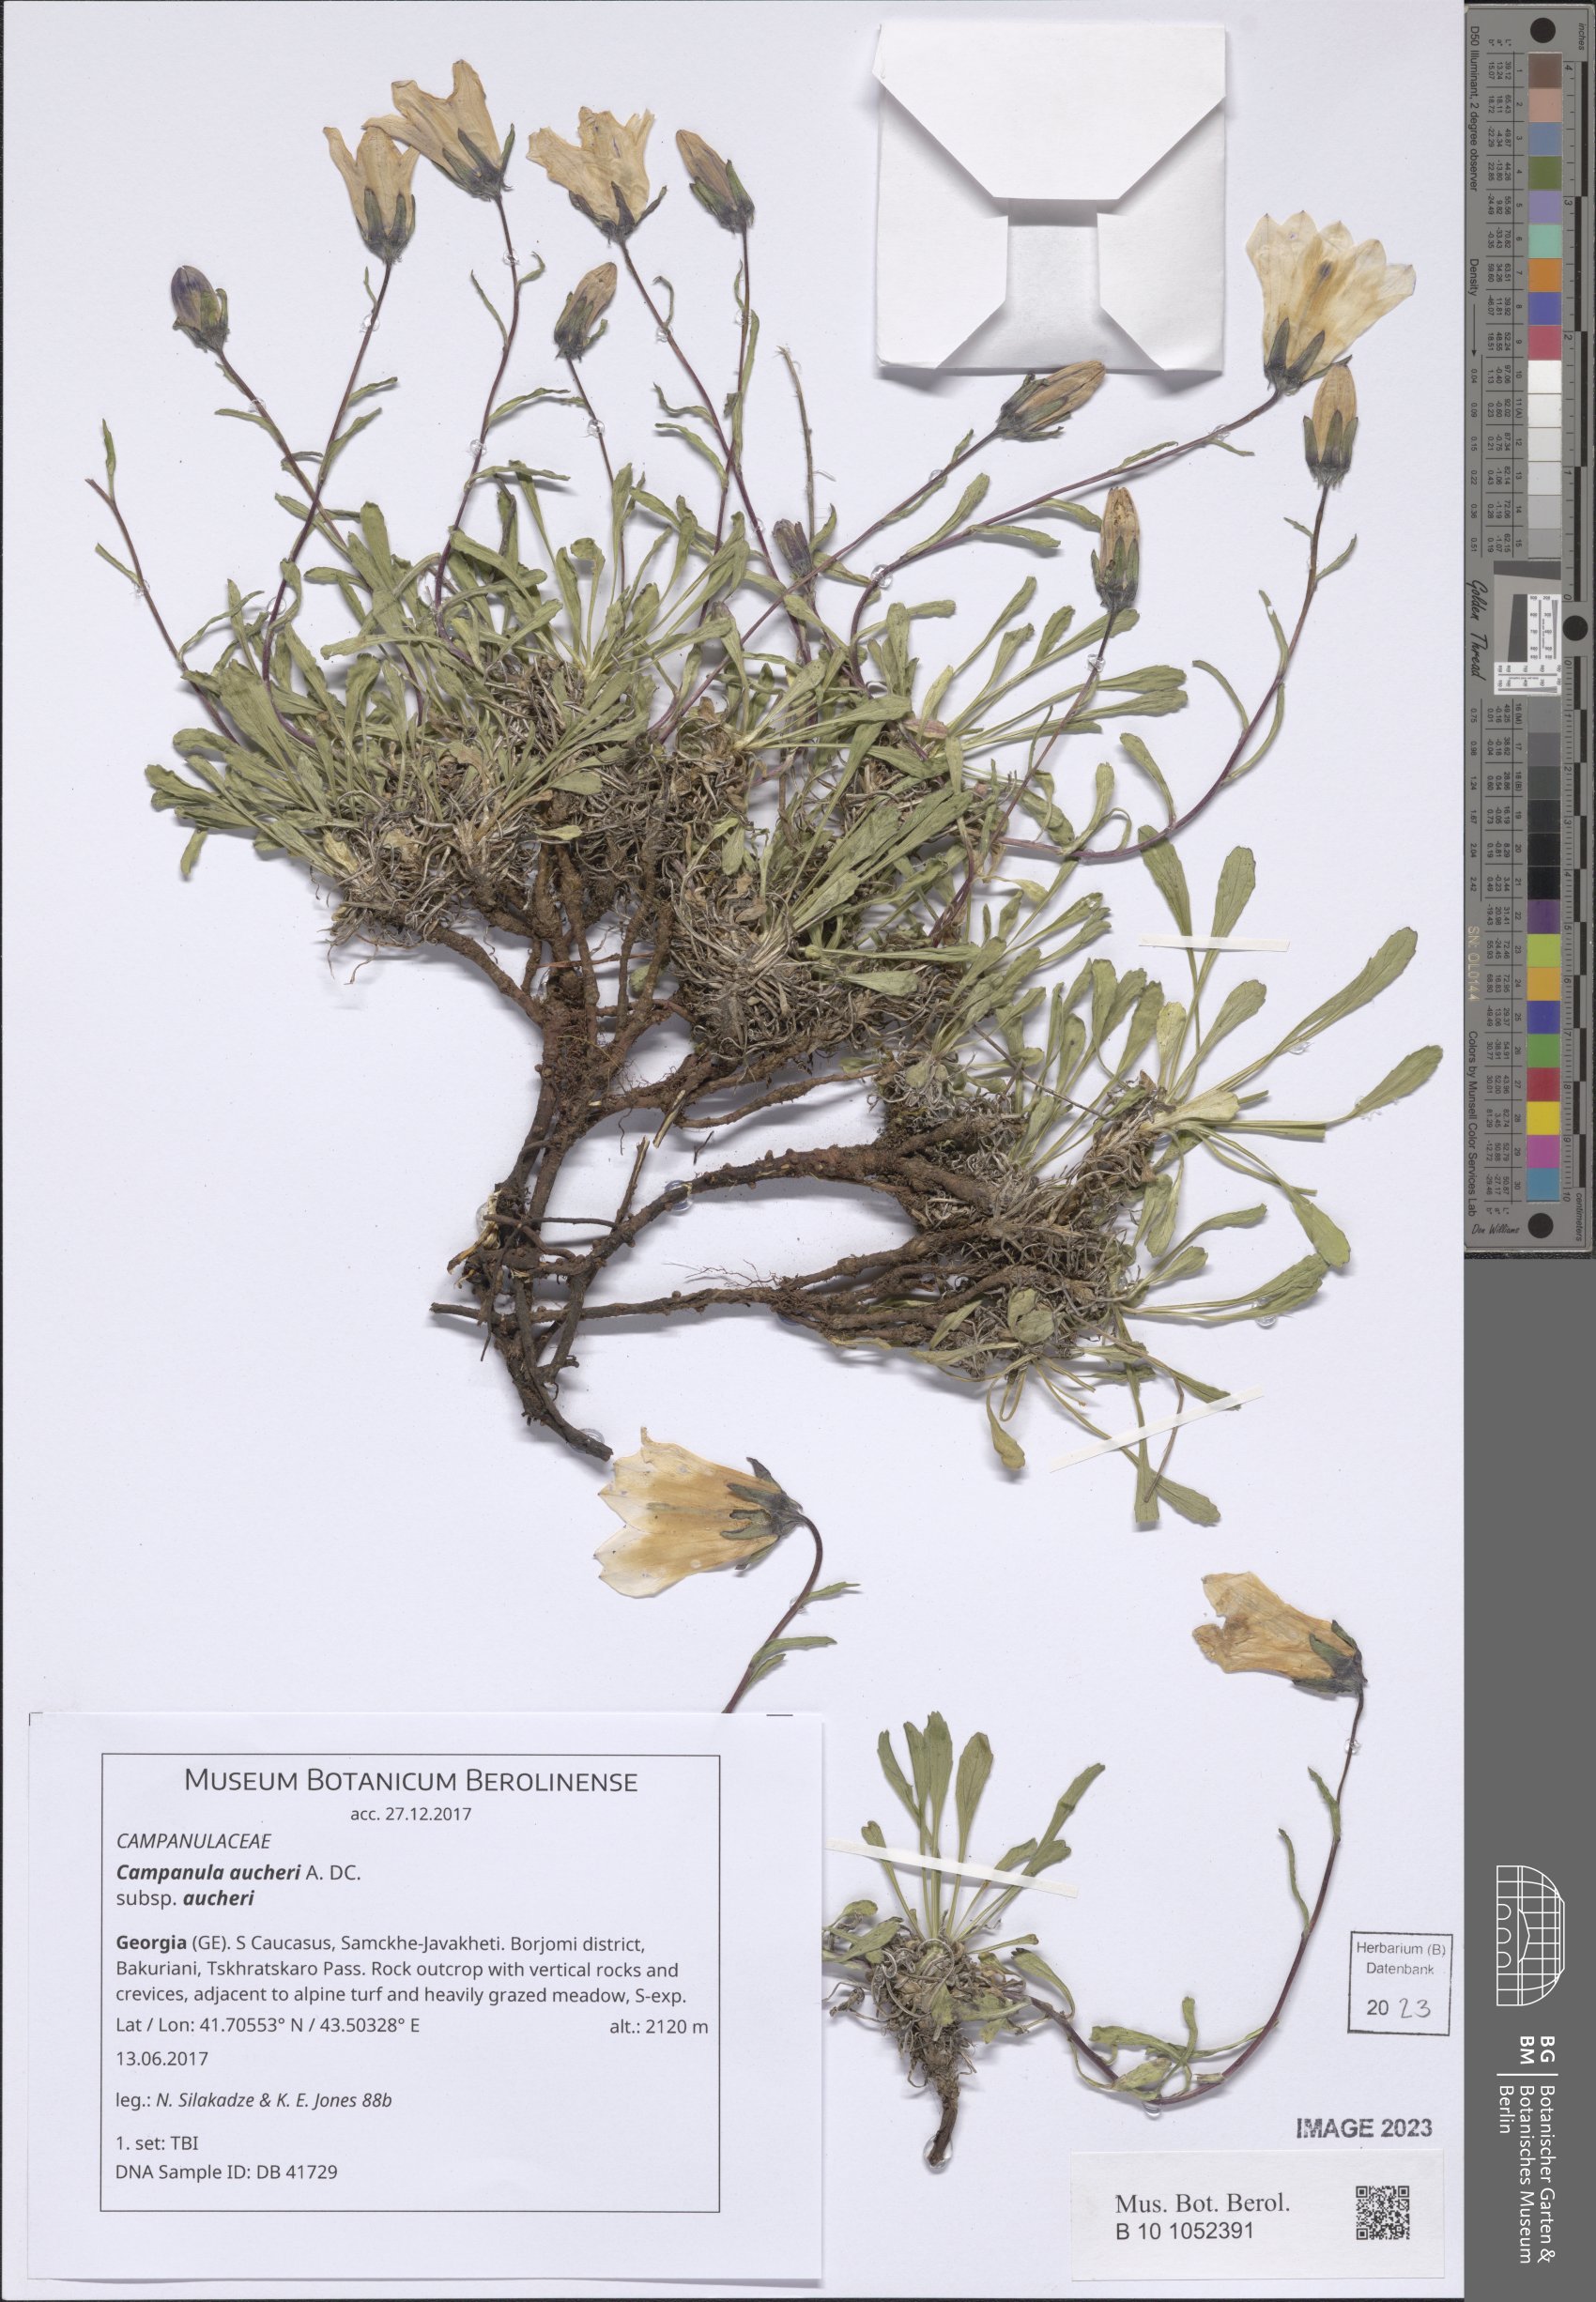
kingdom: Plantae
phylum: Tracheophyta
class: Magnoliopsida
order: Asterales
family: Campanulaceae
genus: Campanula
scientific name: Campanula saxifraga
